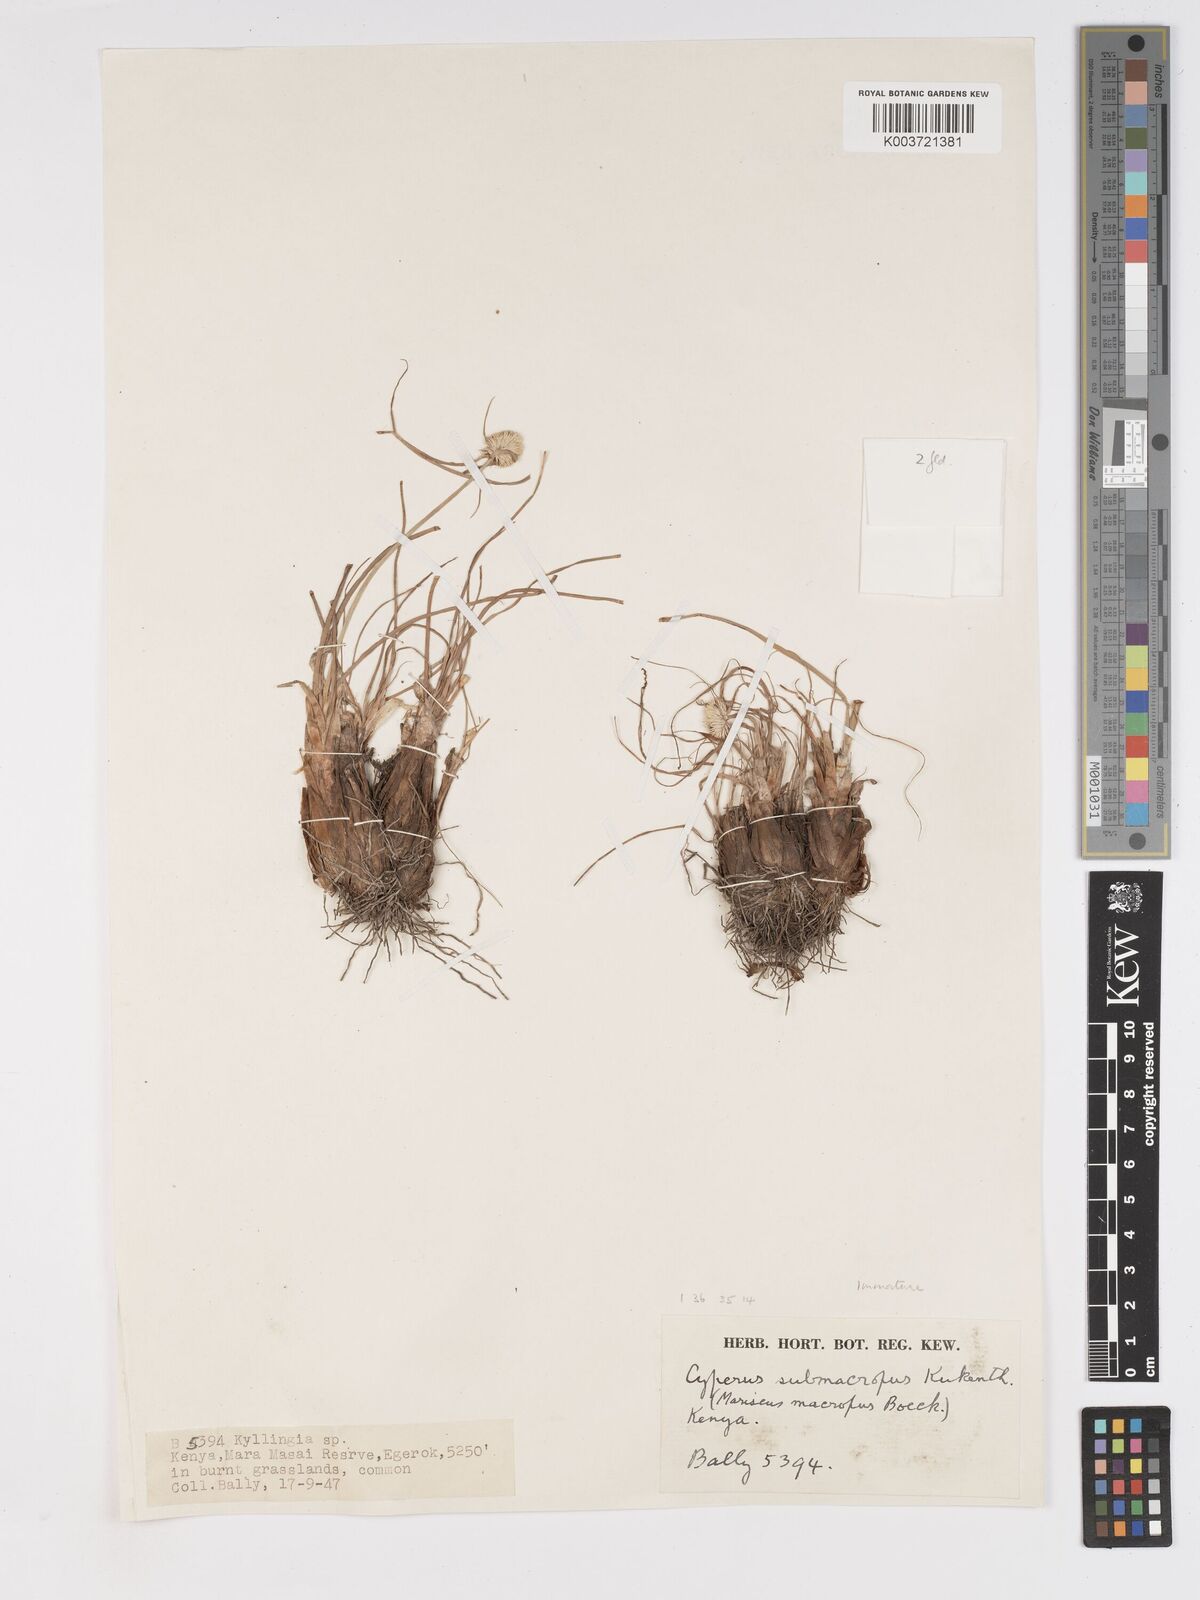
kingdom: Plantae
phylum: Tracheophyta
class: Liliopsida
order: Poales
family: Cyperaceae
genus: Cyperus
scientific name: Cyperus mollipes
